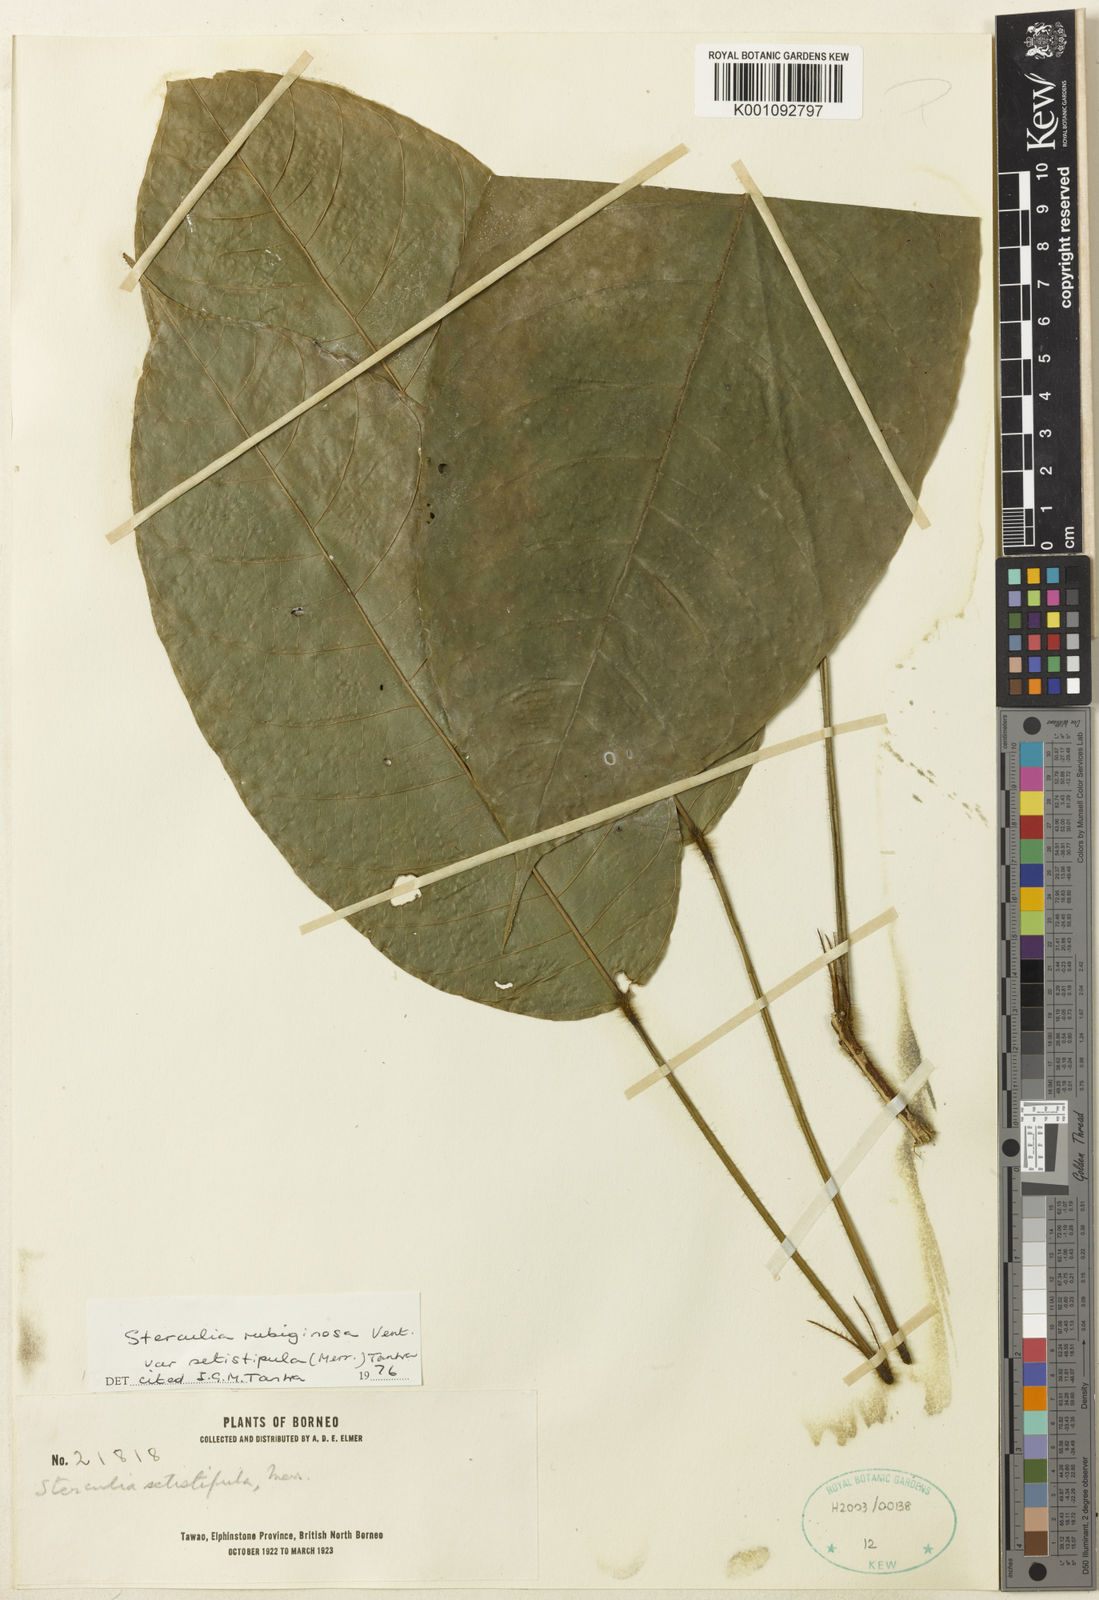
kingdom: Plantae
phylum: Tracheophyta
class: Magnoliopsida
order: Malvales
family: Malvaceae
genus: Sterculia
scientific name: Sterculia rubiginosa
